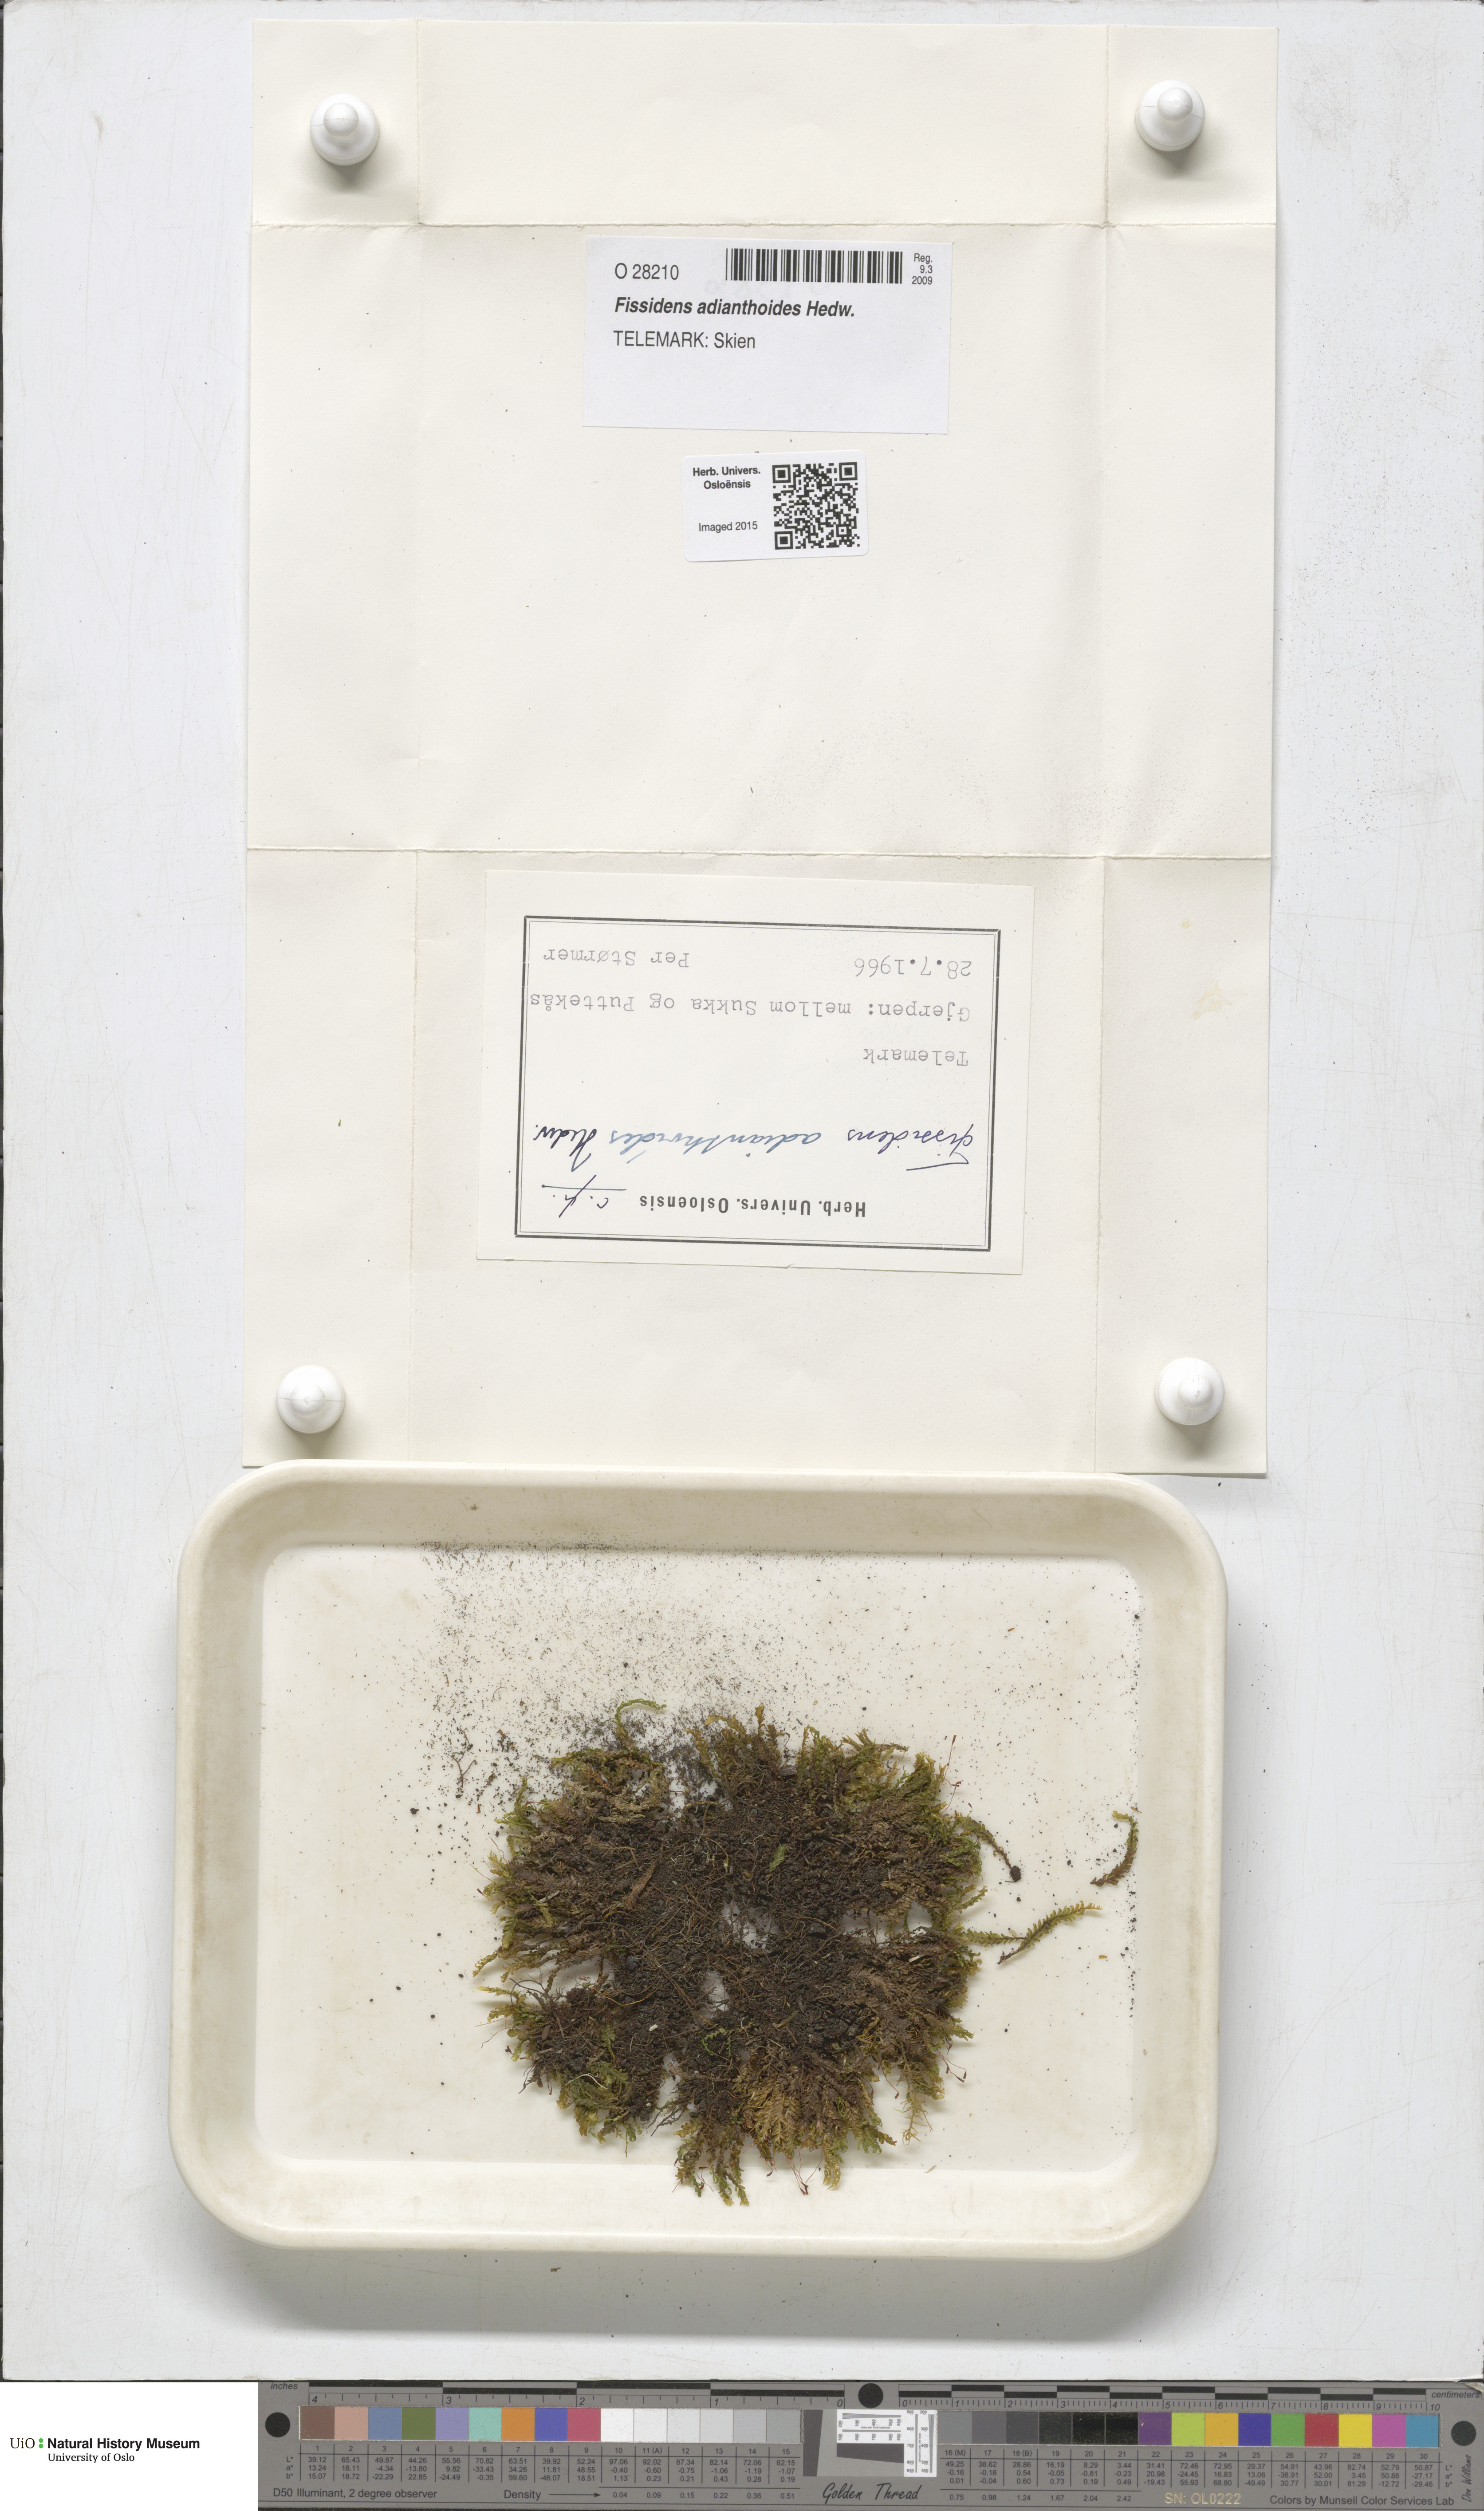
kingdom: Plantae
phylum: Bryophyta
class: Bryopsida
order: Dicranales
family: Fissidentaceae
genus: Fissidens
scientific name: Fissidens adianthoides
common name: Maidenhair pocket moss
